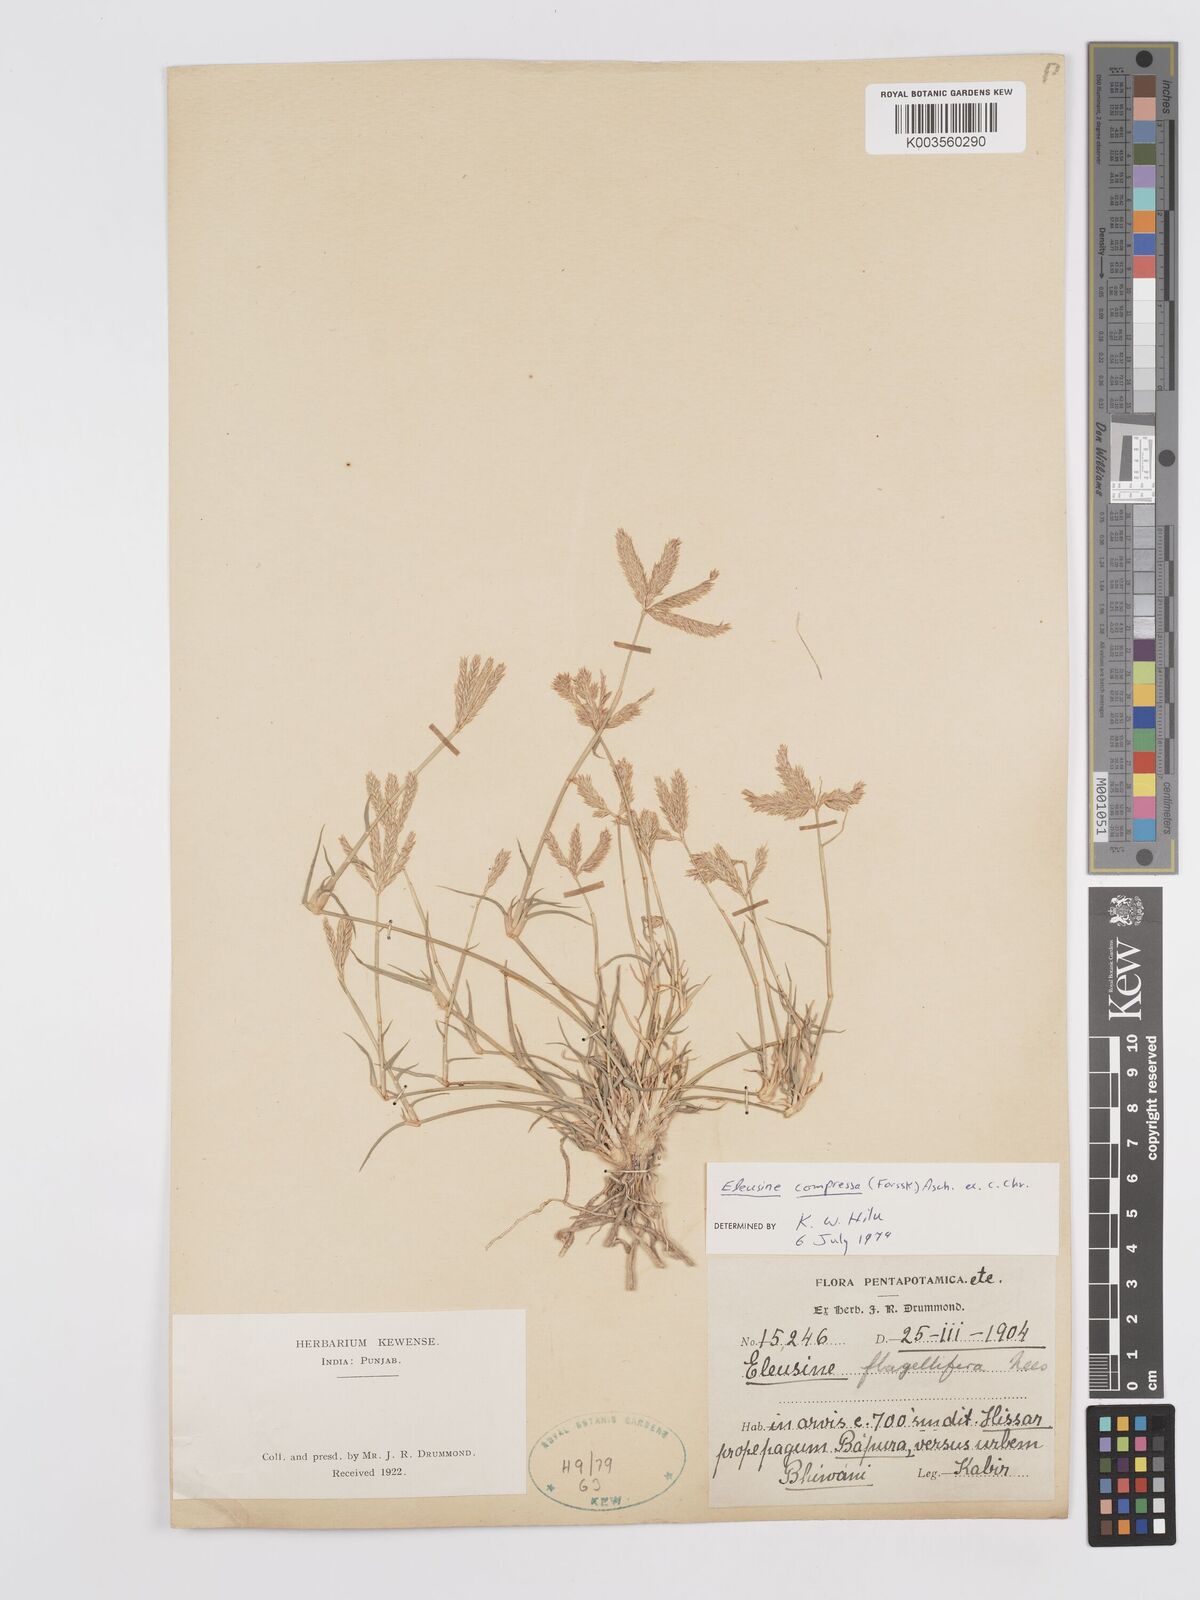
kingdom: Plantae
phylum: Tracheophyta
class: Liliopsida
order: Poales
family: Poaceae
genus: Chloris
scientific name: Chloris flagellifera
